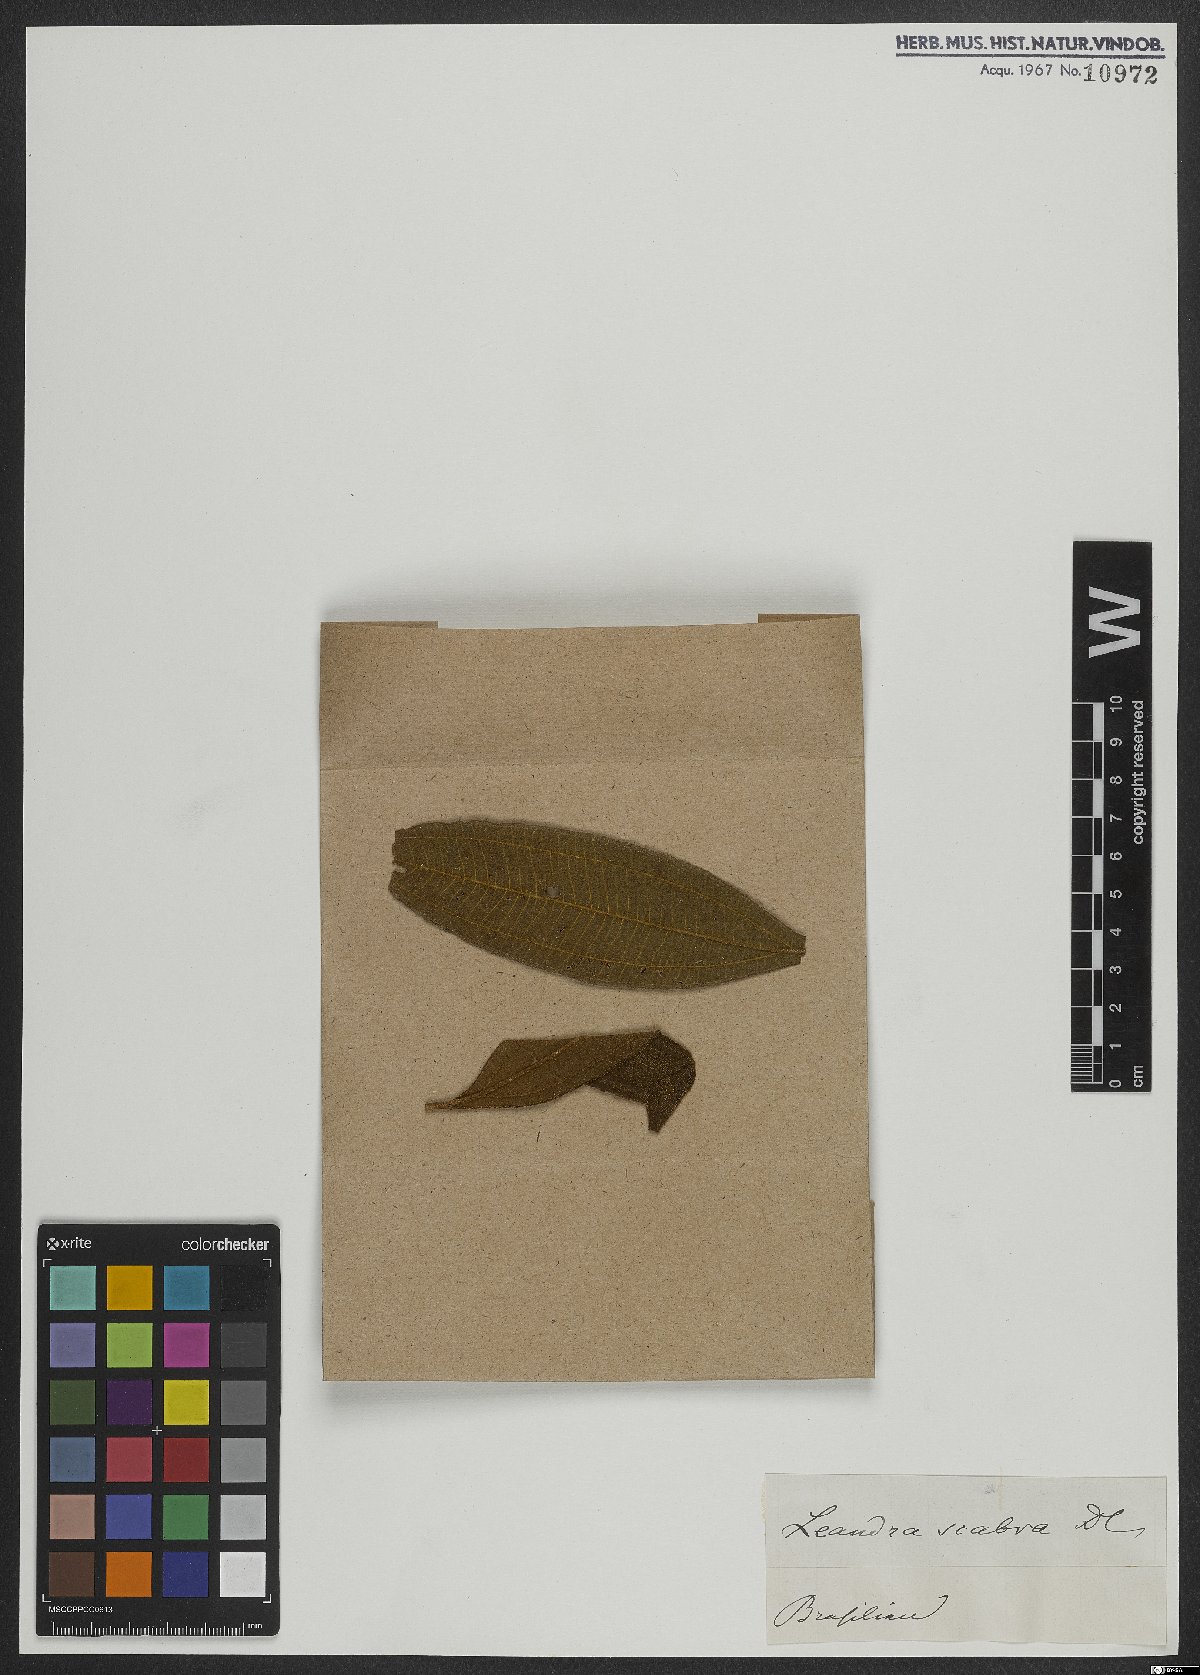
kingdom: Plantae
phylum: Tracheophyta
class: Magnoliopsida
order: Myrtales
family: Melastomataceae
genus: Miconia
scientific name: Miconia melastomoides
